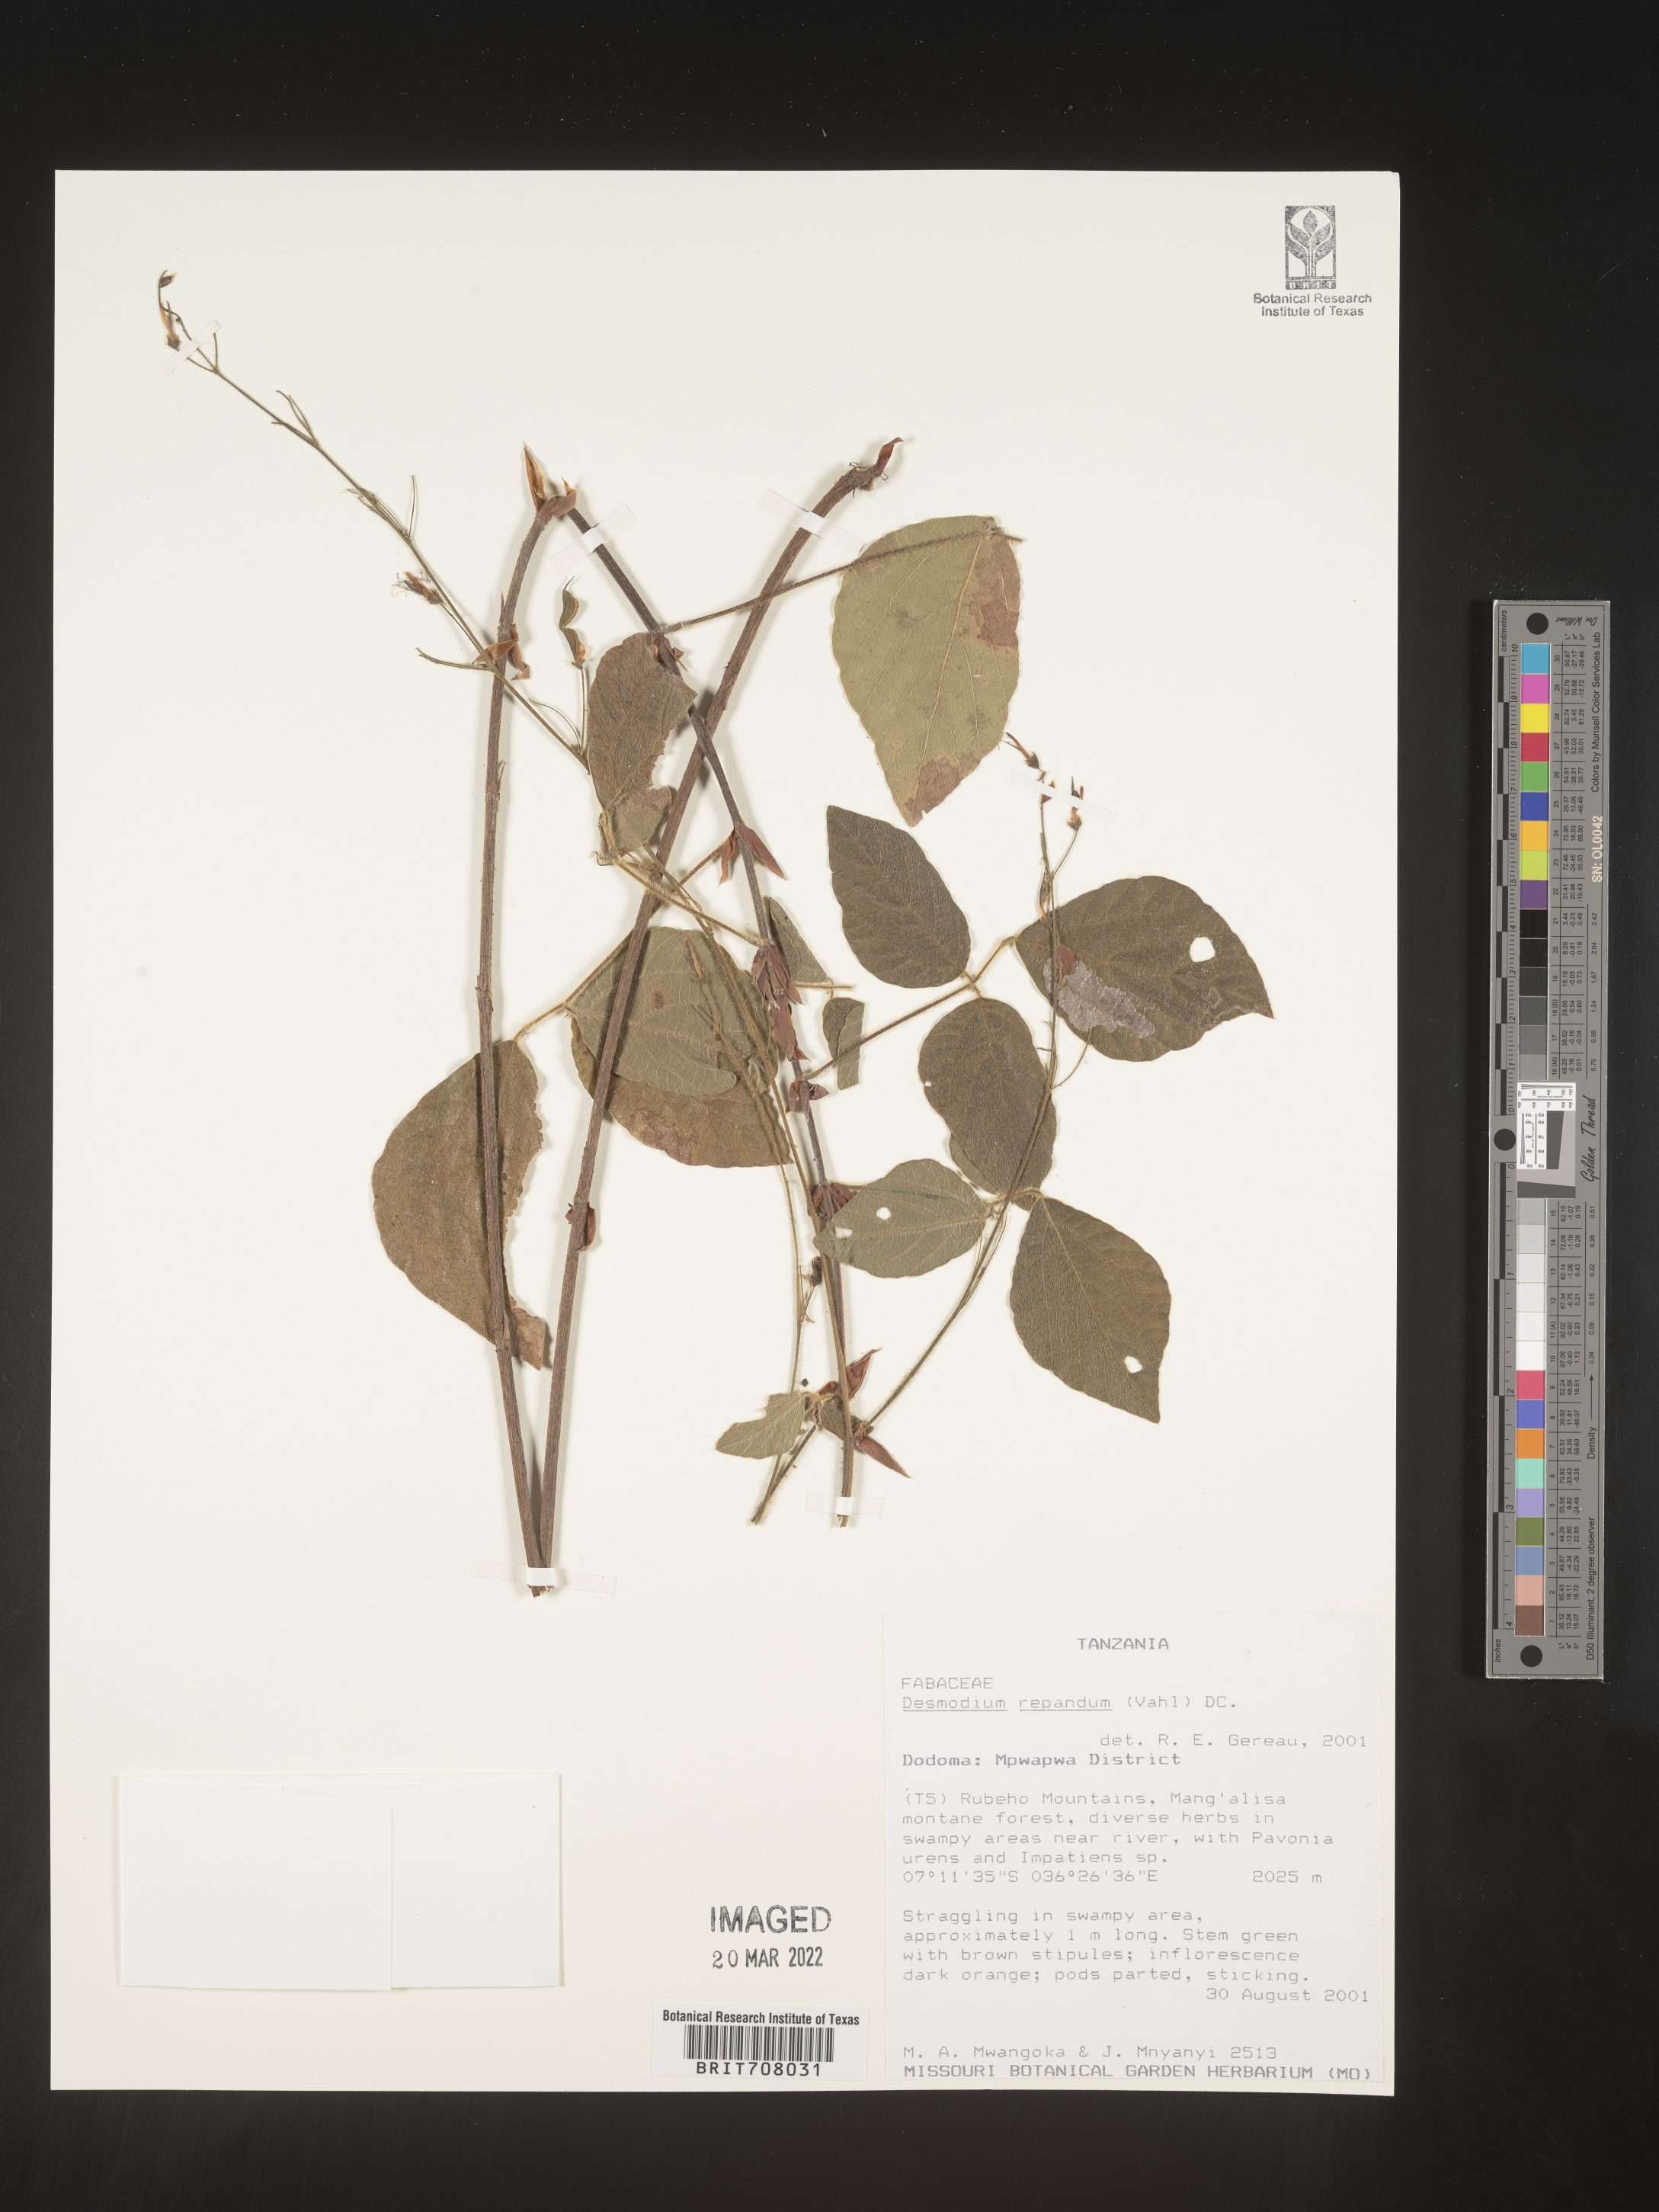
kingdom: Plantae
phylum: Tracheophyta
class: Magnoliopsida
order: Fabales
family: Fabaceae
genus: Desmodium
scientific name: Desmodium
